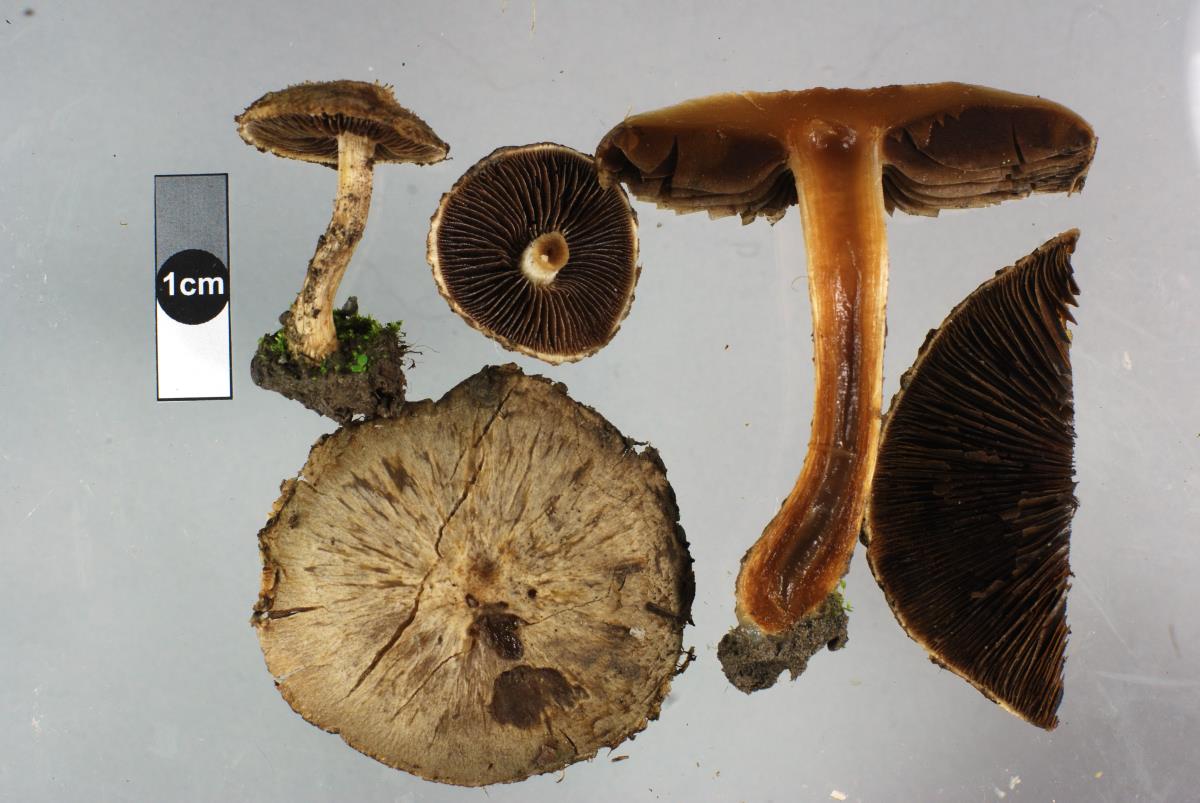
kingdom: Fungi
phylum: Basidiomycota
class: Agaricomycetes
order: Agaricales
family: Psathyrellaceae
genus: Psathyrella
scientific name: Psathyrella asperospora
